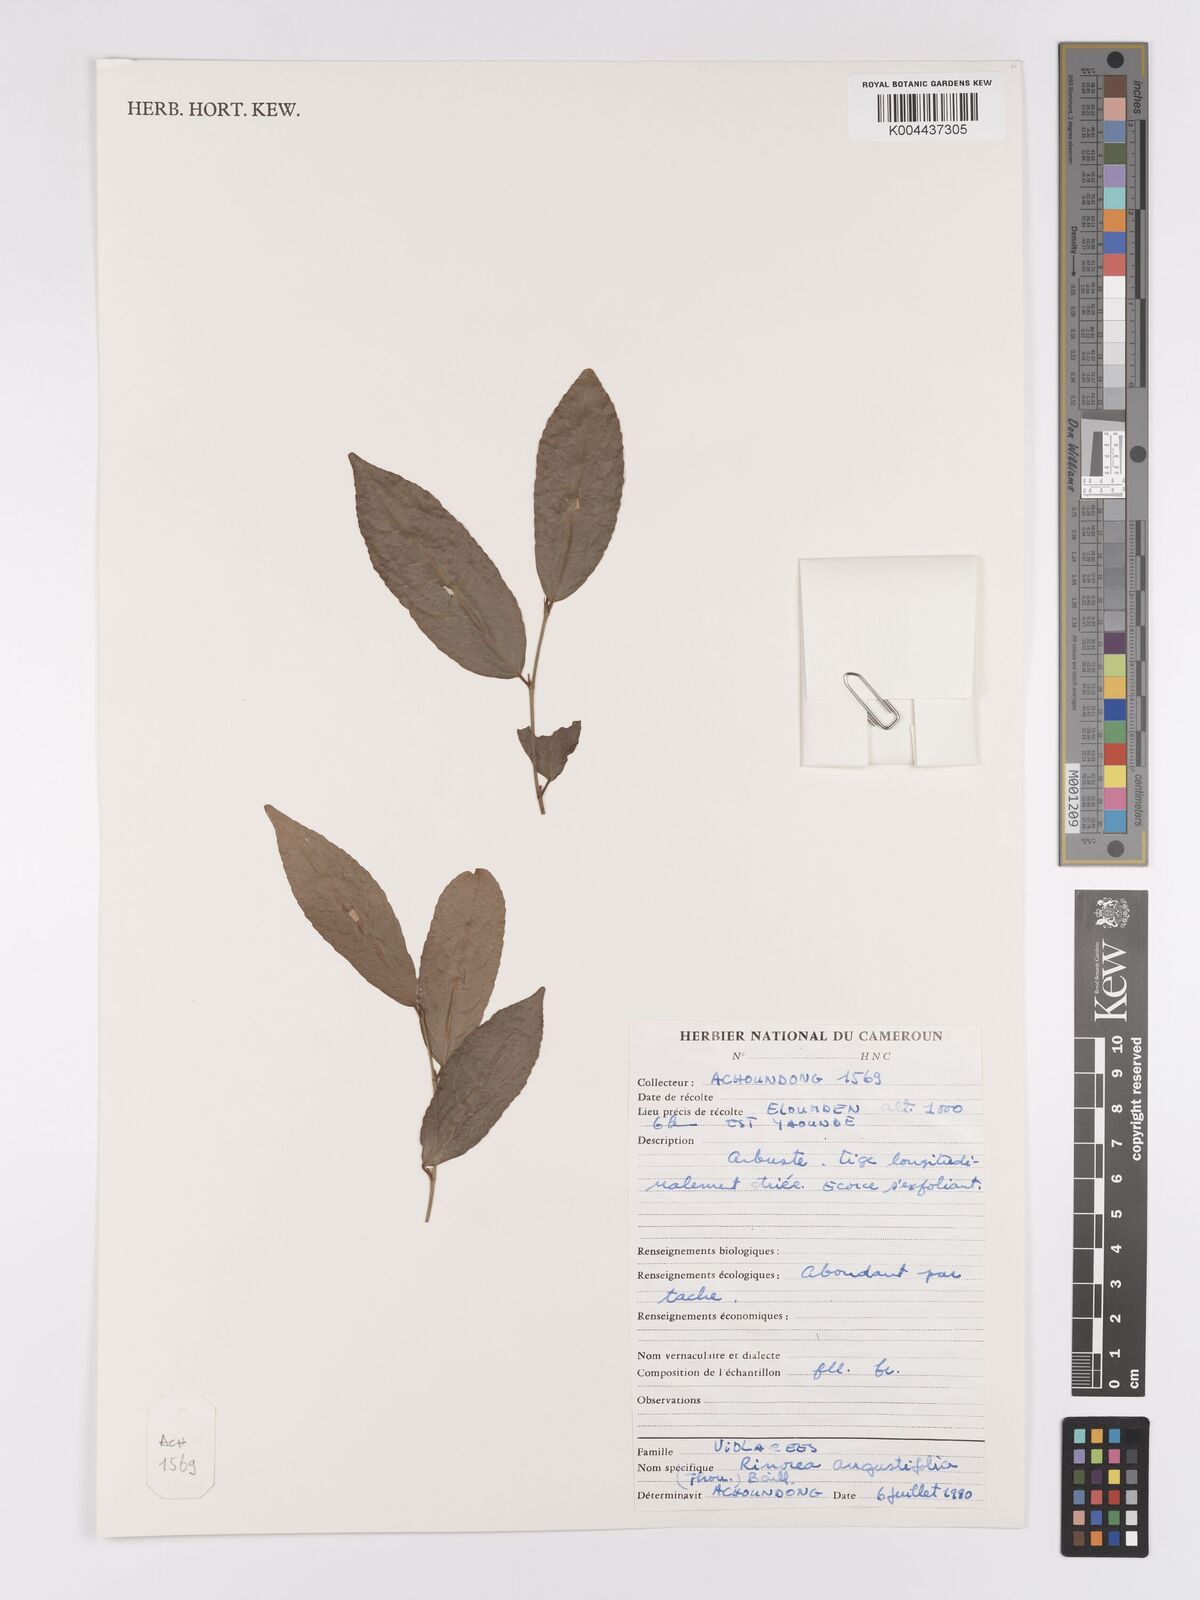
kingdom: Plantae
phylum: Tracheophyta
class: Magnoliopsida
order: Malpighiales
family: Violaceae
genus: Rinorea
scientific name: Rinorea angustifolia
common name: White violet-bush
